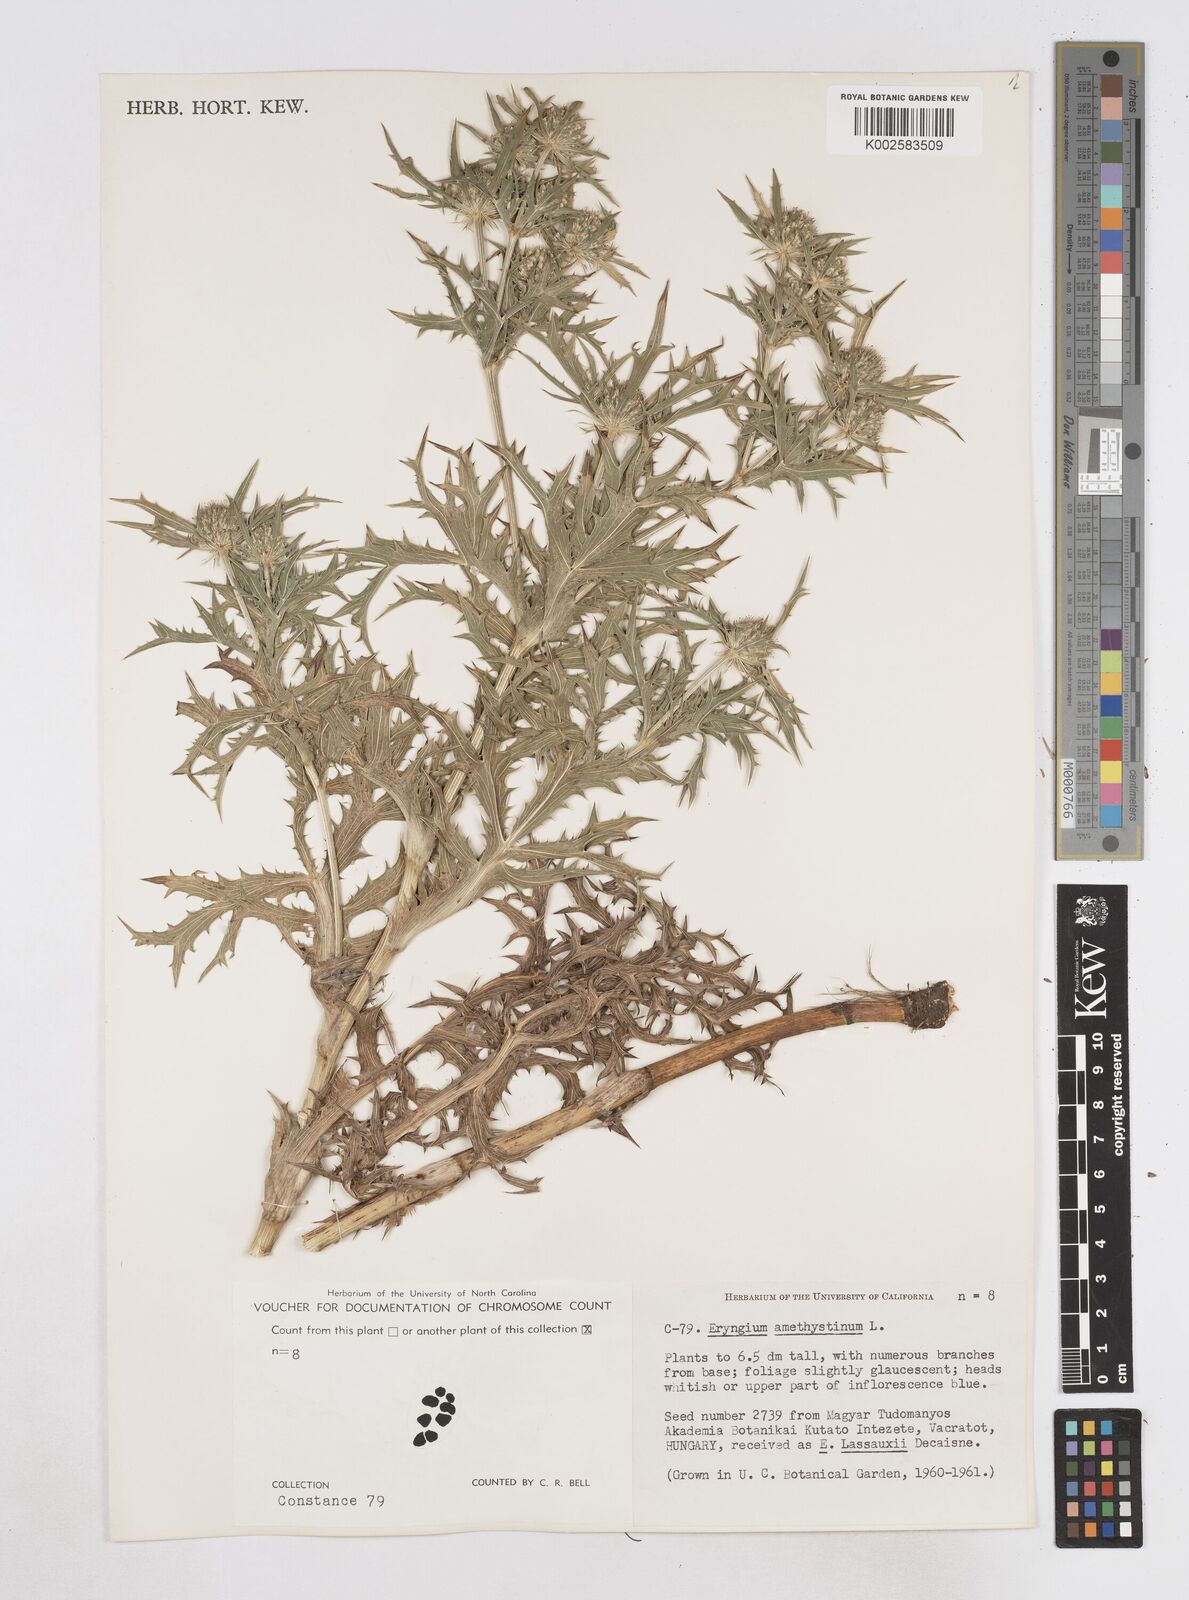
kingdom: Plantae
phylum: Tracheophyta
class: Magnoliopsida
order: Apiales
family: Apiaceae
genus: Eryngium
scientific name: Eryngium amethystinum
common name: Amethyst eryngo
